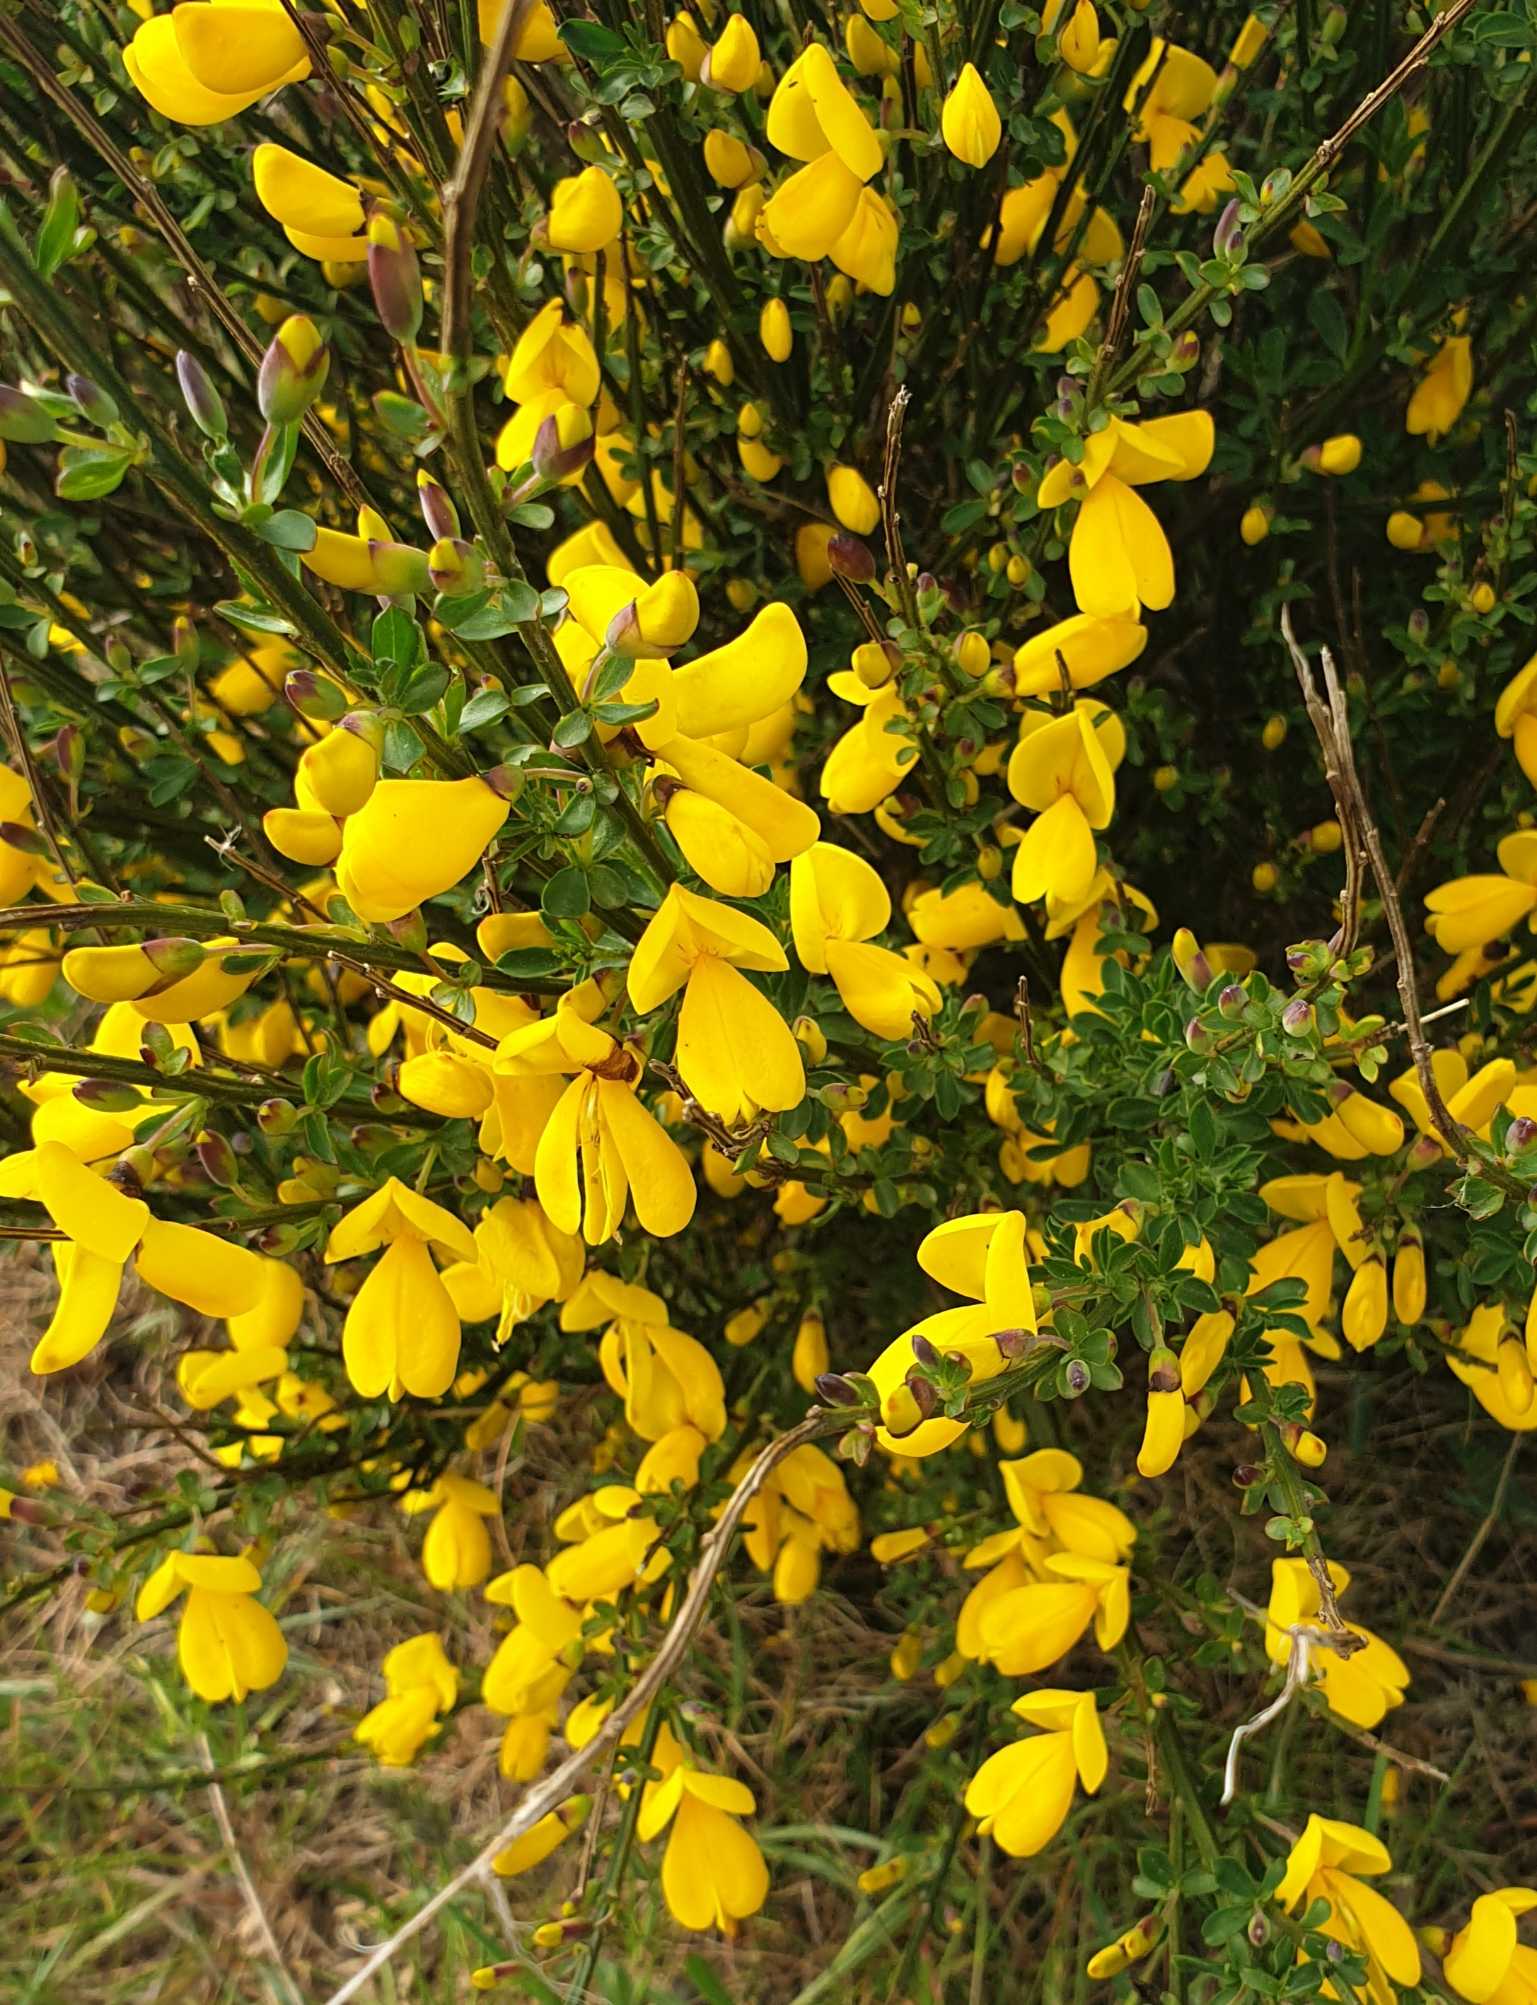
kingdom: Plantae
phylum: Tracheophyta
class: Magnoliopsida
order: Fabales
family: Fabaceae
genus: Cytisus
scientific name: Cytisus scoparius
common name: Almindelig gyvel
